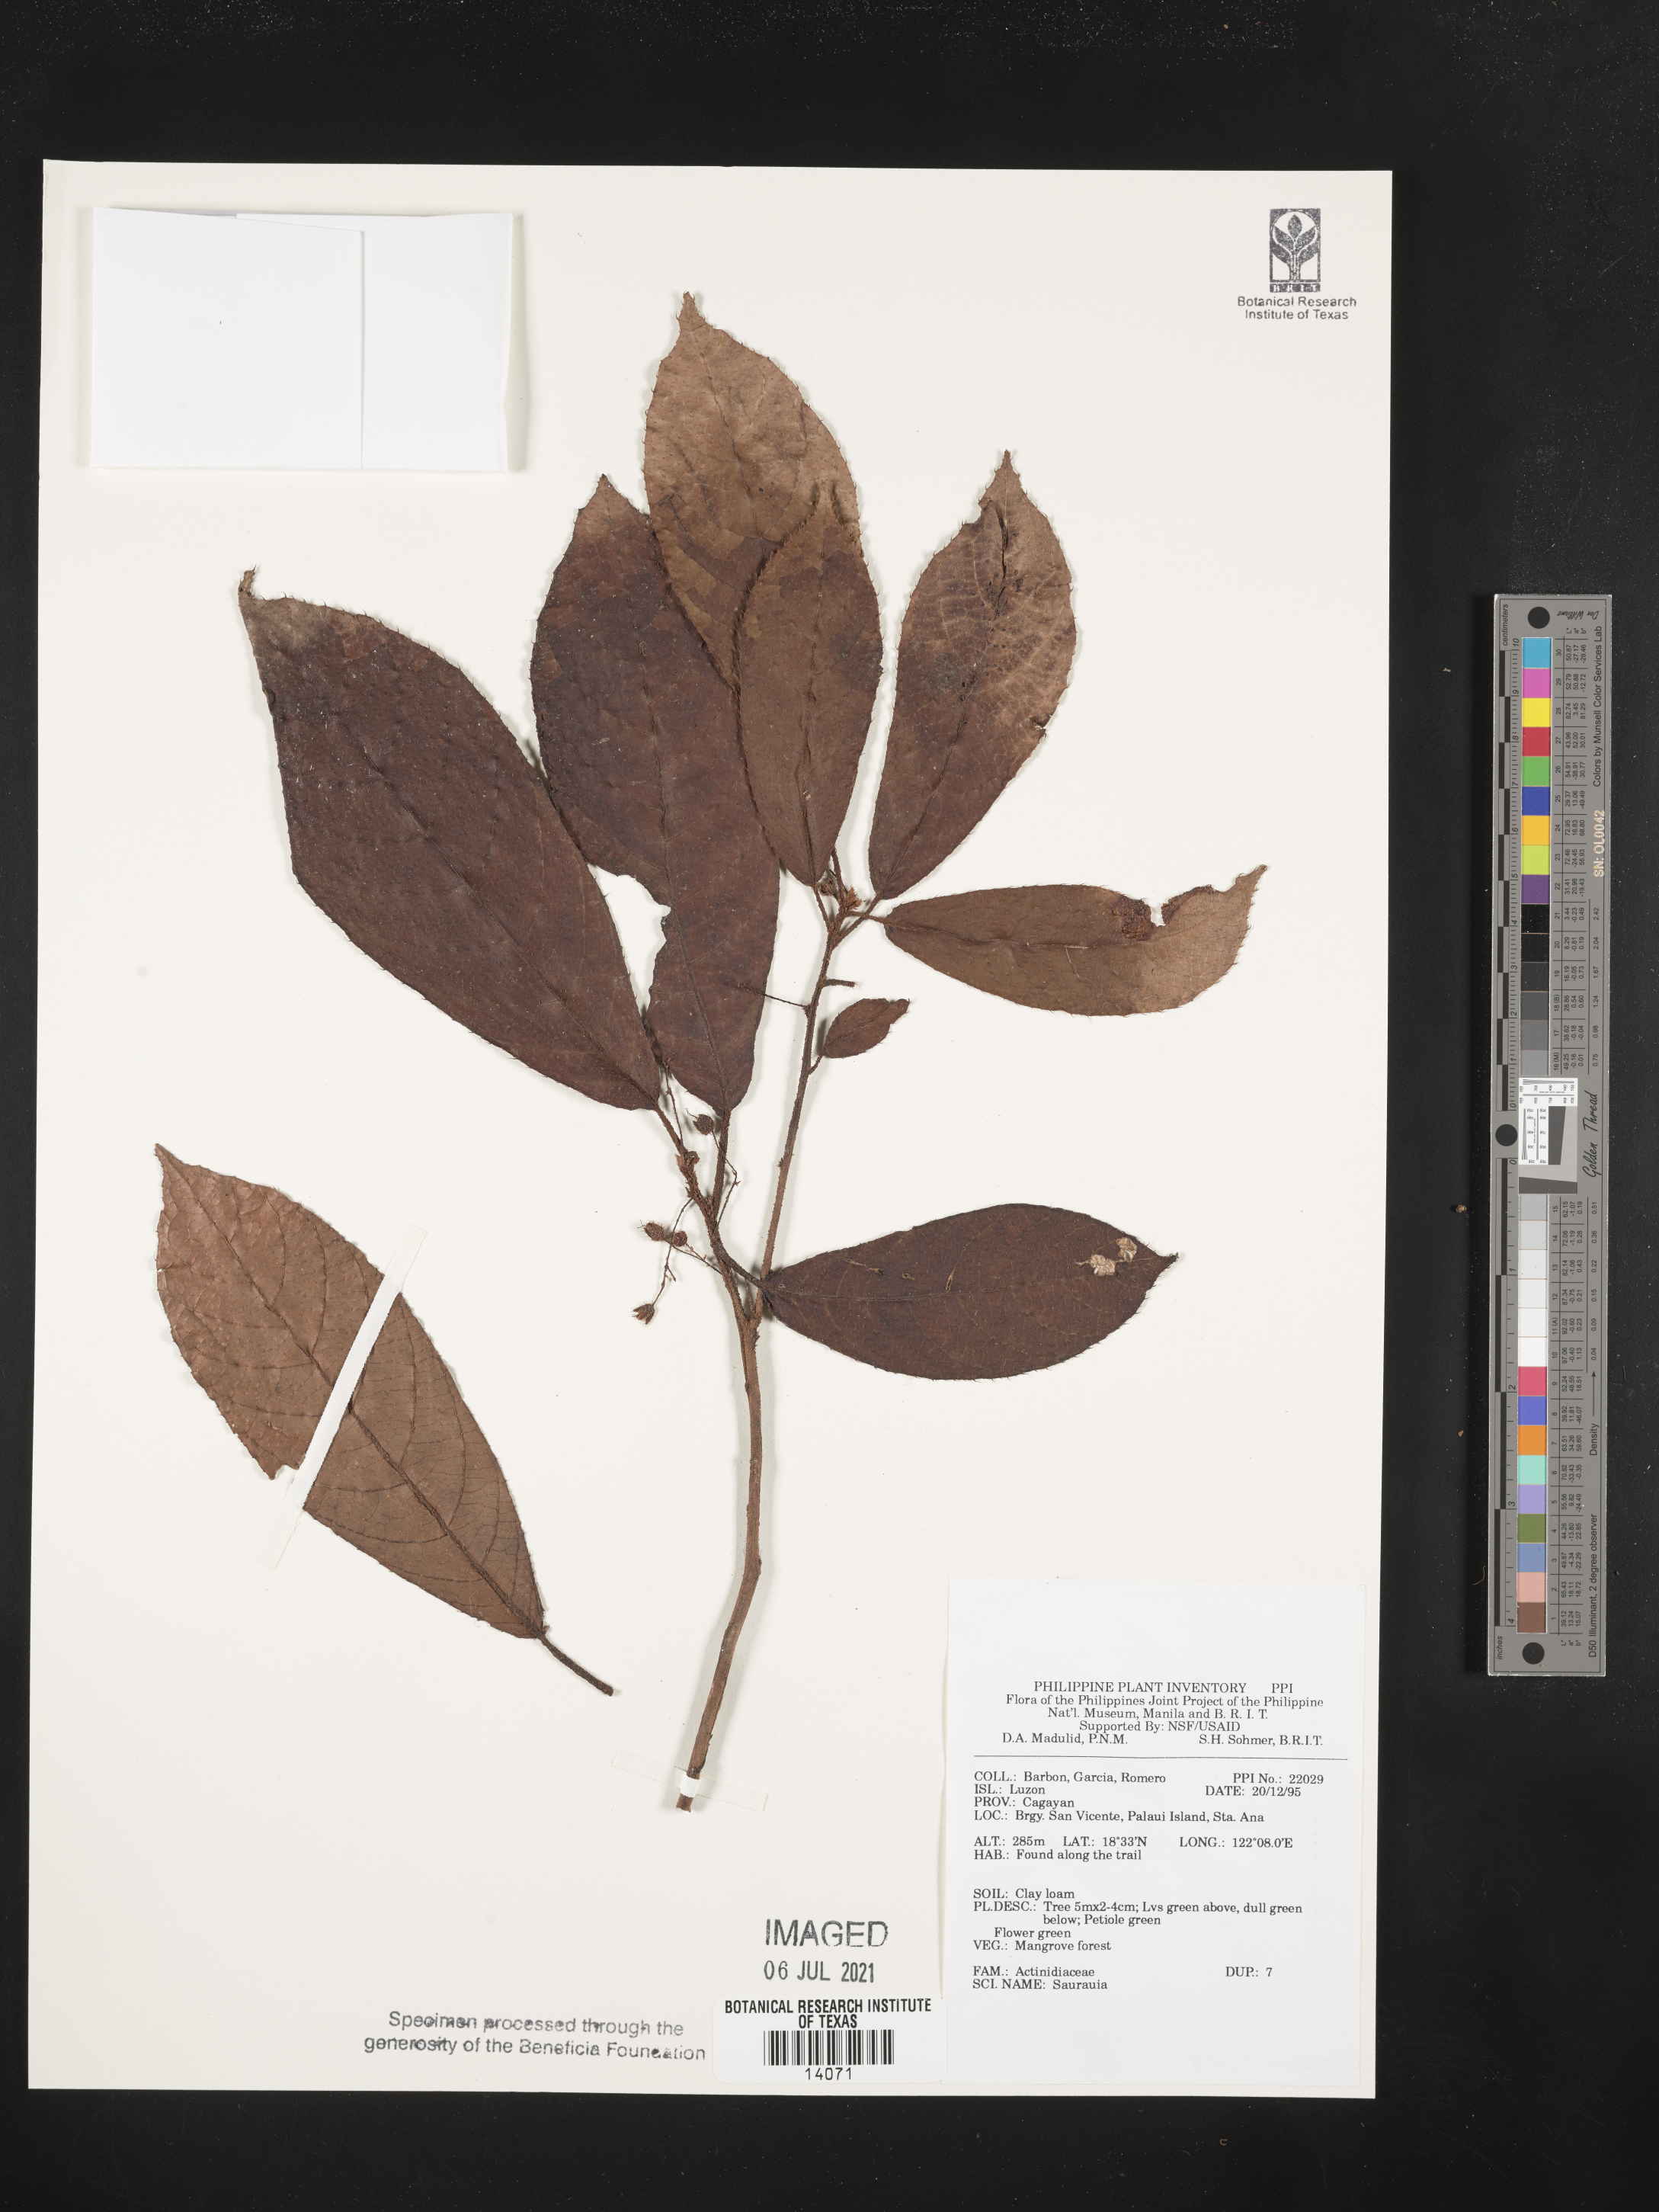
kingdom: Plantae
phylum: Tracheophyta
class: Magnoliopsida
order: Ericales
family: Actinidiaceae
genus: Saurauia
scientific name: Saurauia
